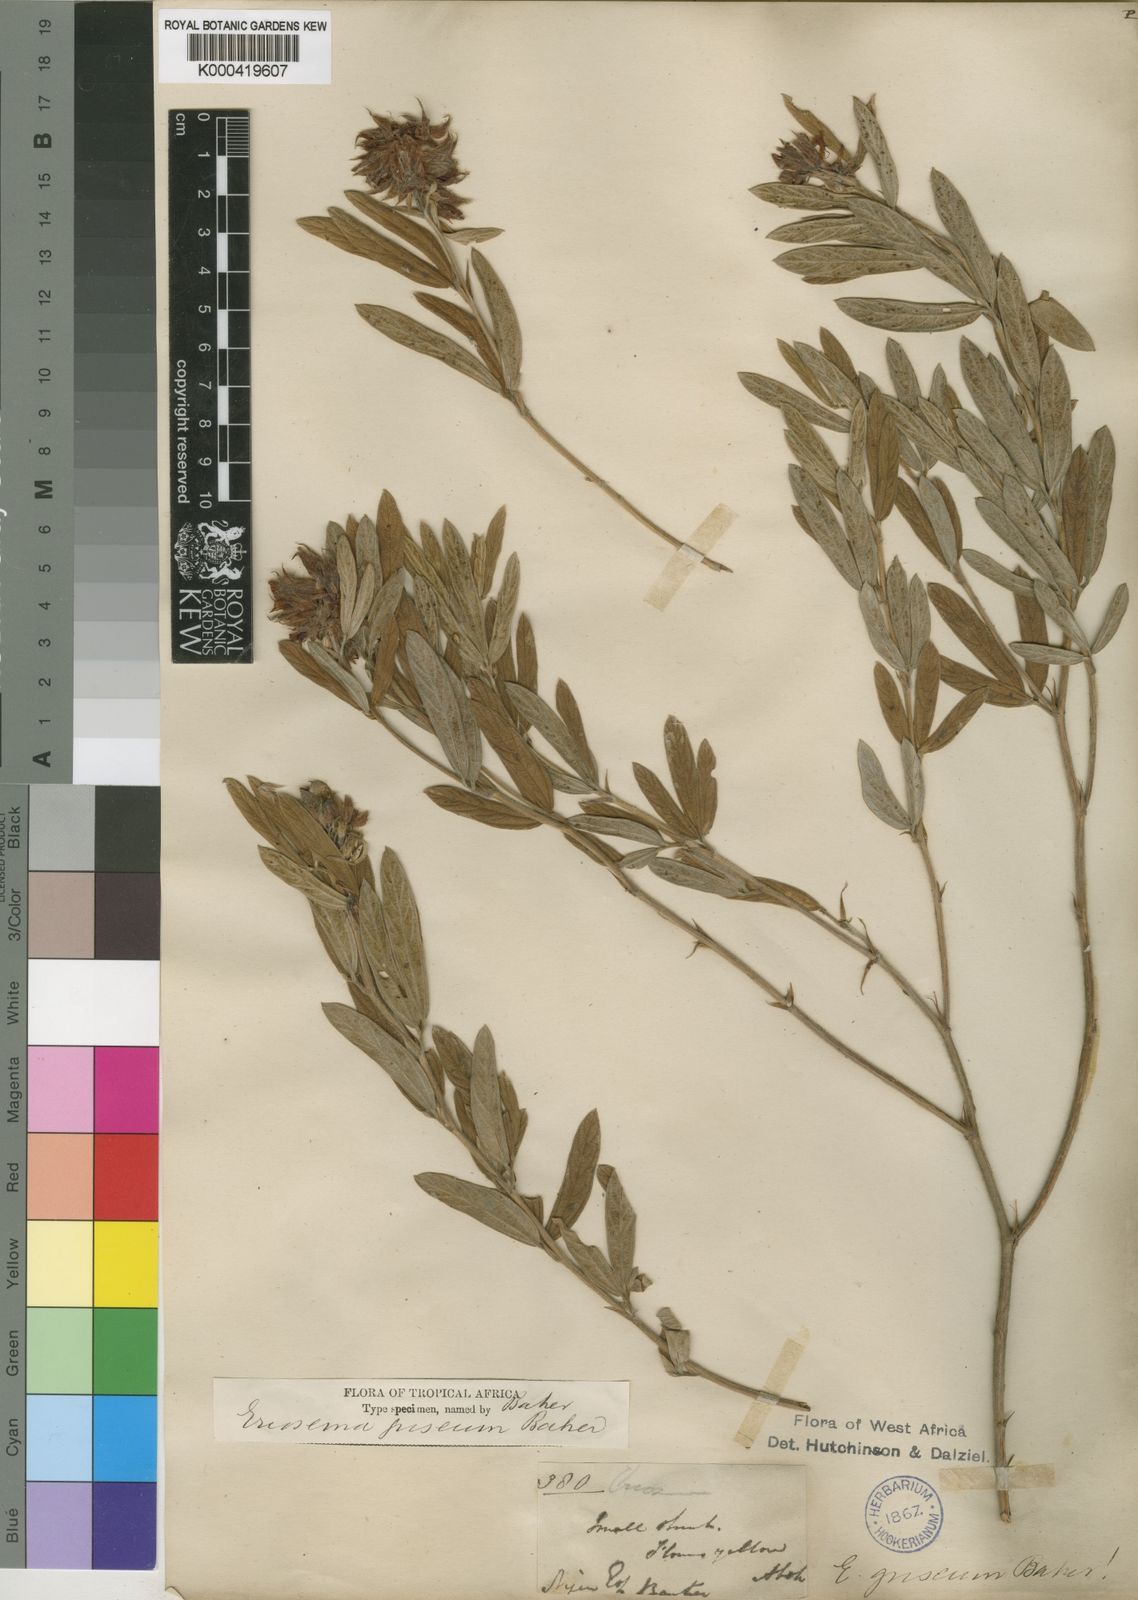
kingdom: Plantae
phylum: Tracheophyta
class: Magnoliopsida
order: Fabales
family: Fabaceae
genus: Eriosema
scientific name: Eriosema griseum
